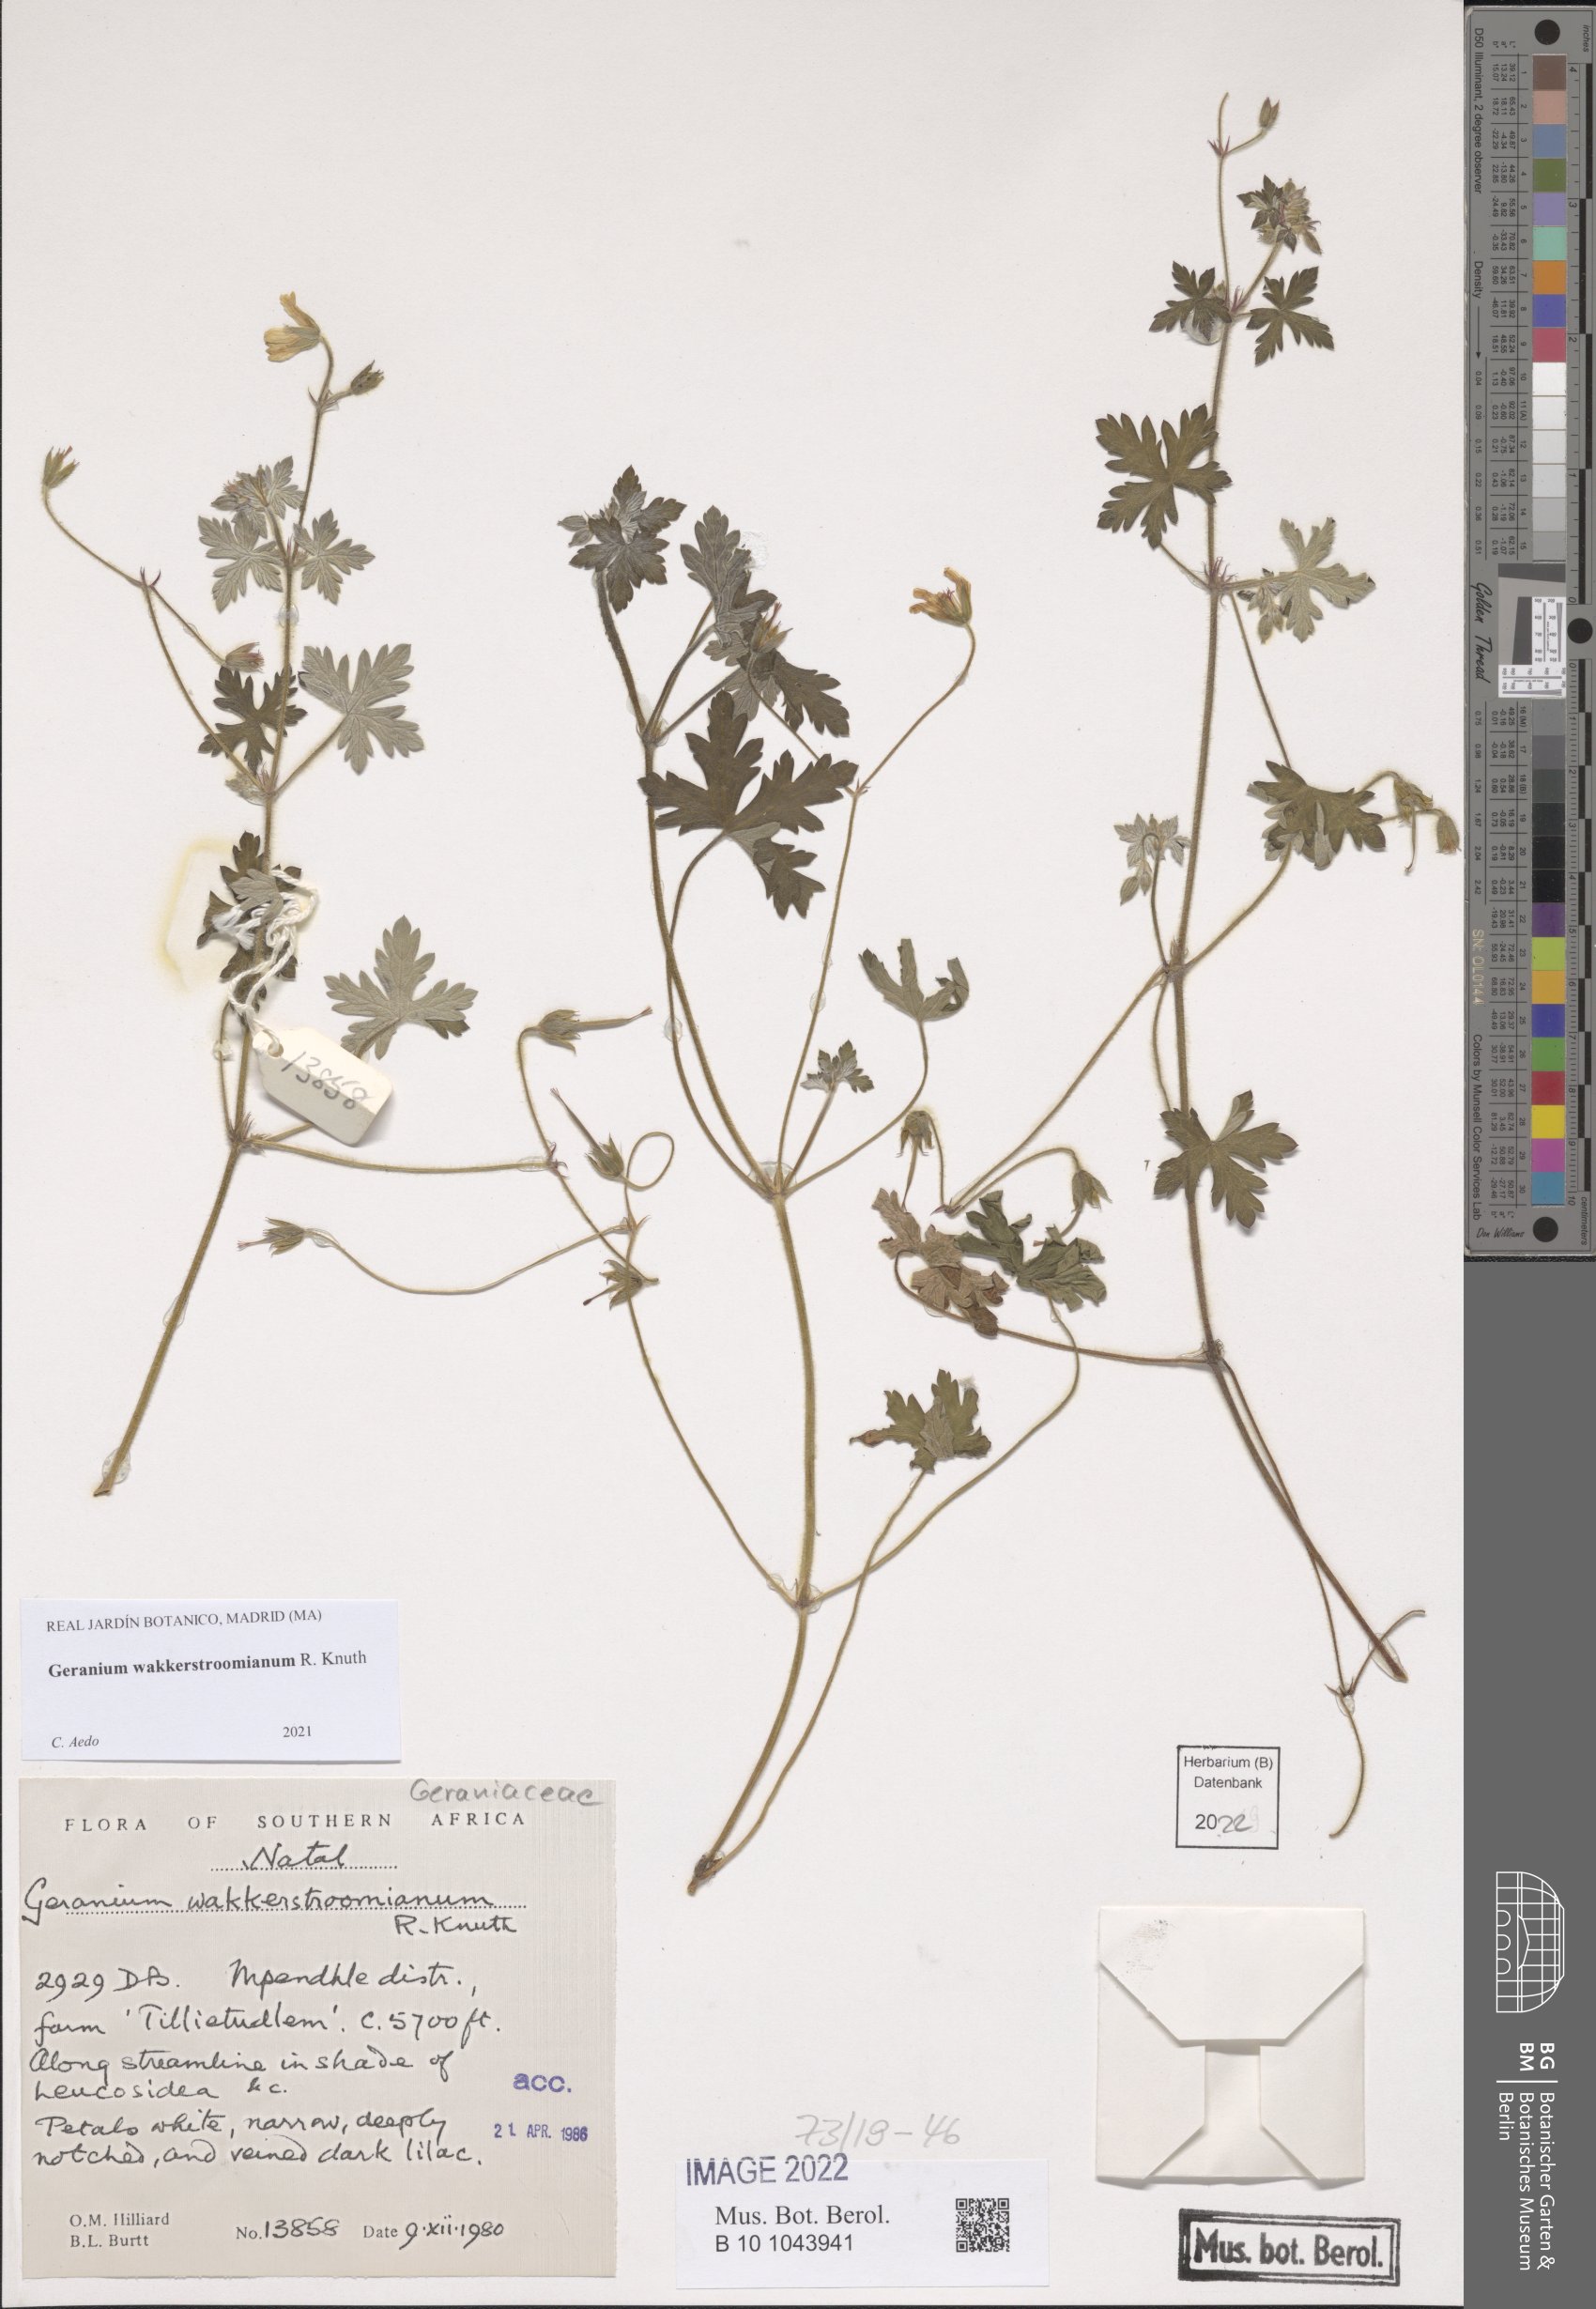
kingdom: Plantae
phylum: Tracheophyta
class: Magnoliopsida
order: Geraniales
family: Geraniaceae
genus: Geranium
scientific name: Geranium wakkerstroomianum
